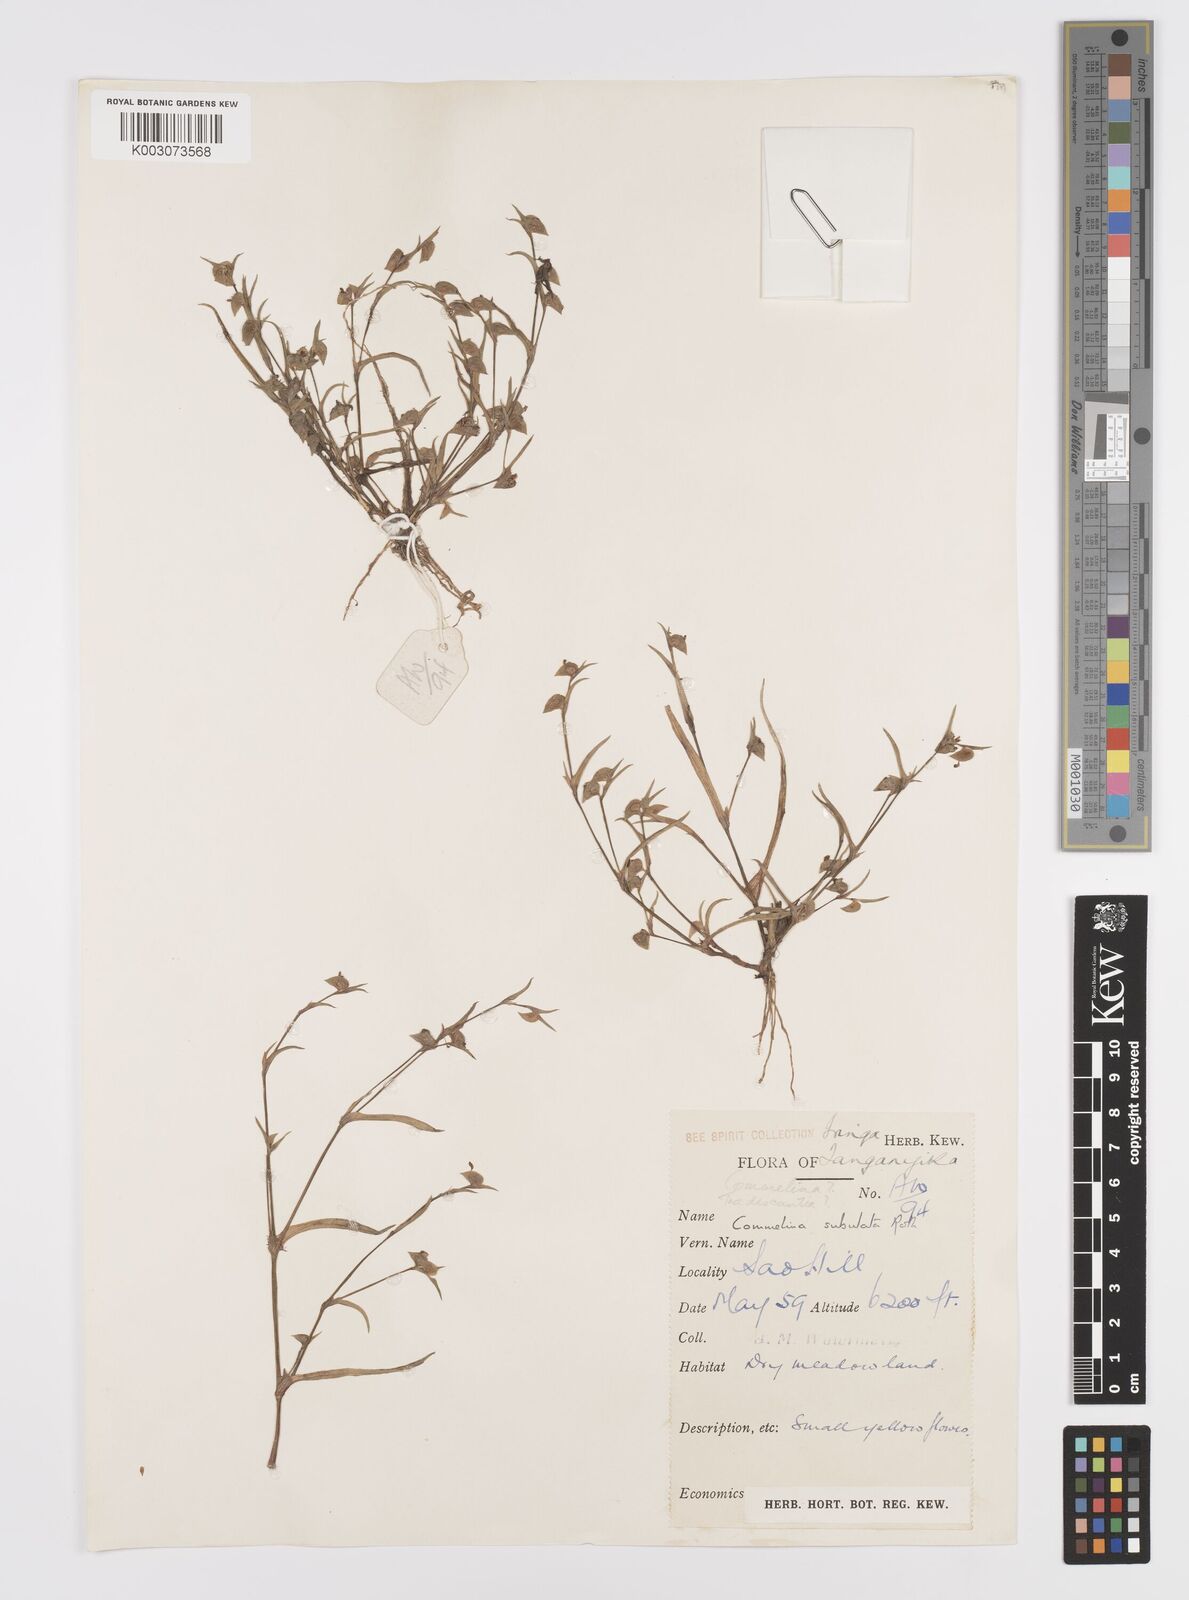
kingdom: Plantae
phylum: Tracheophyta
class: Liliopsida
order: Commelinales
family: Commelinaceae
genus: Commelina
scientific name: Commelina subulata
